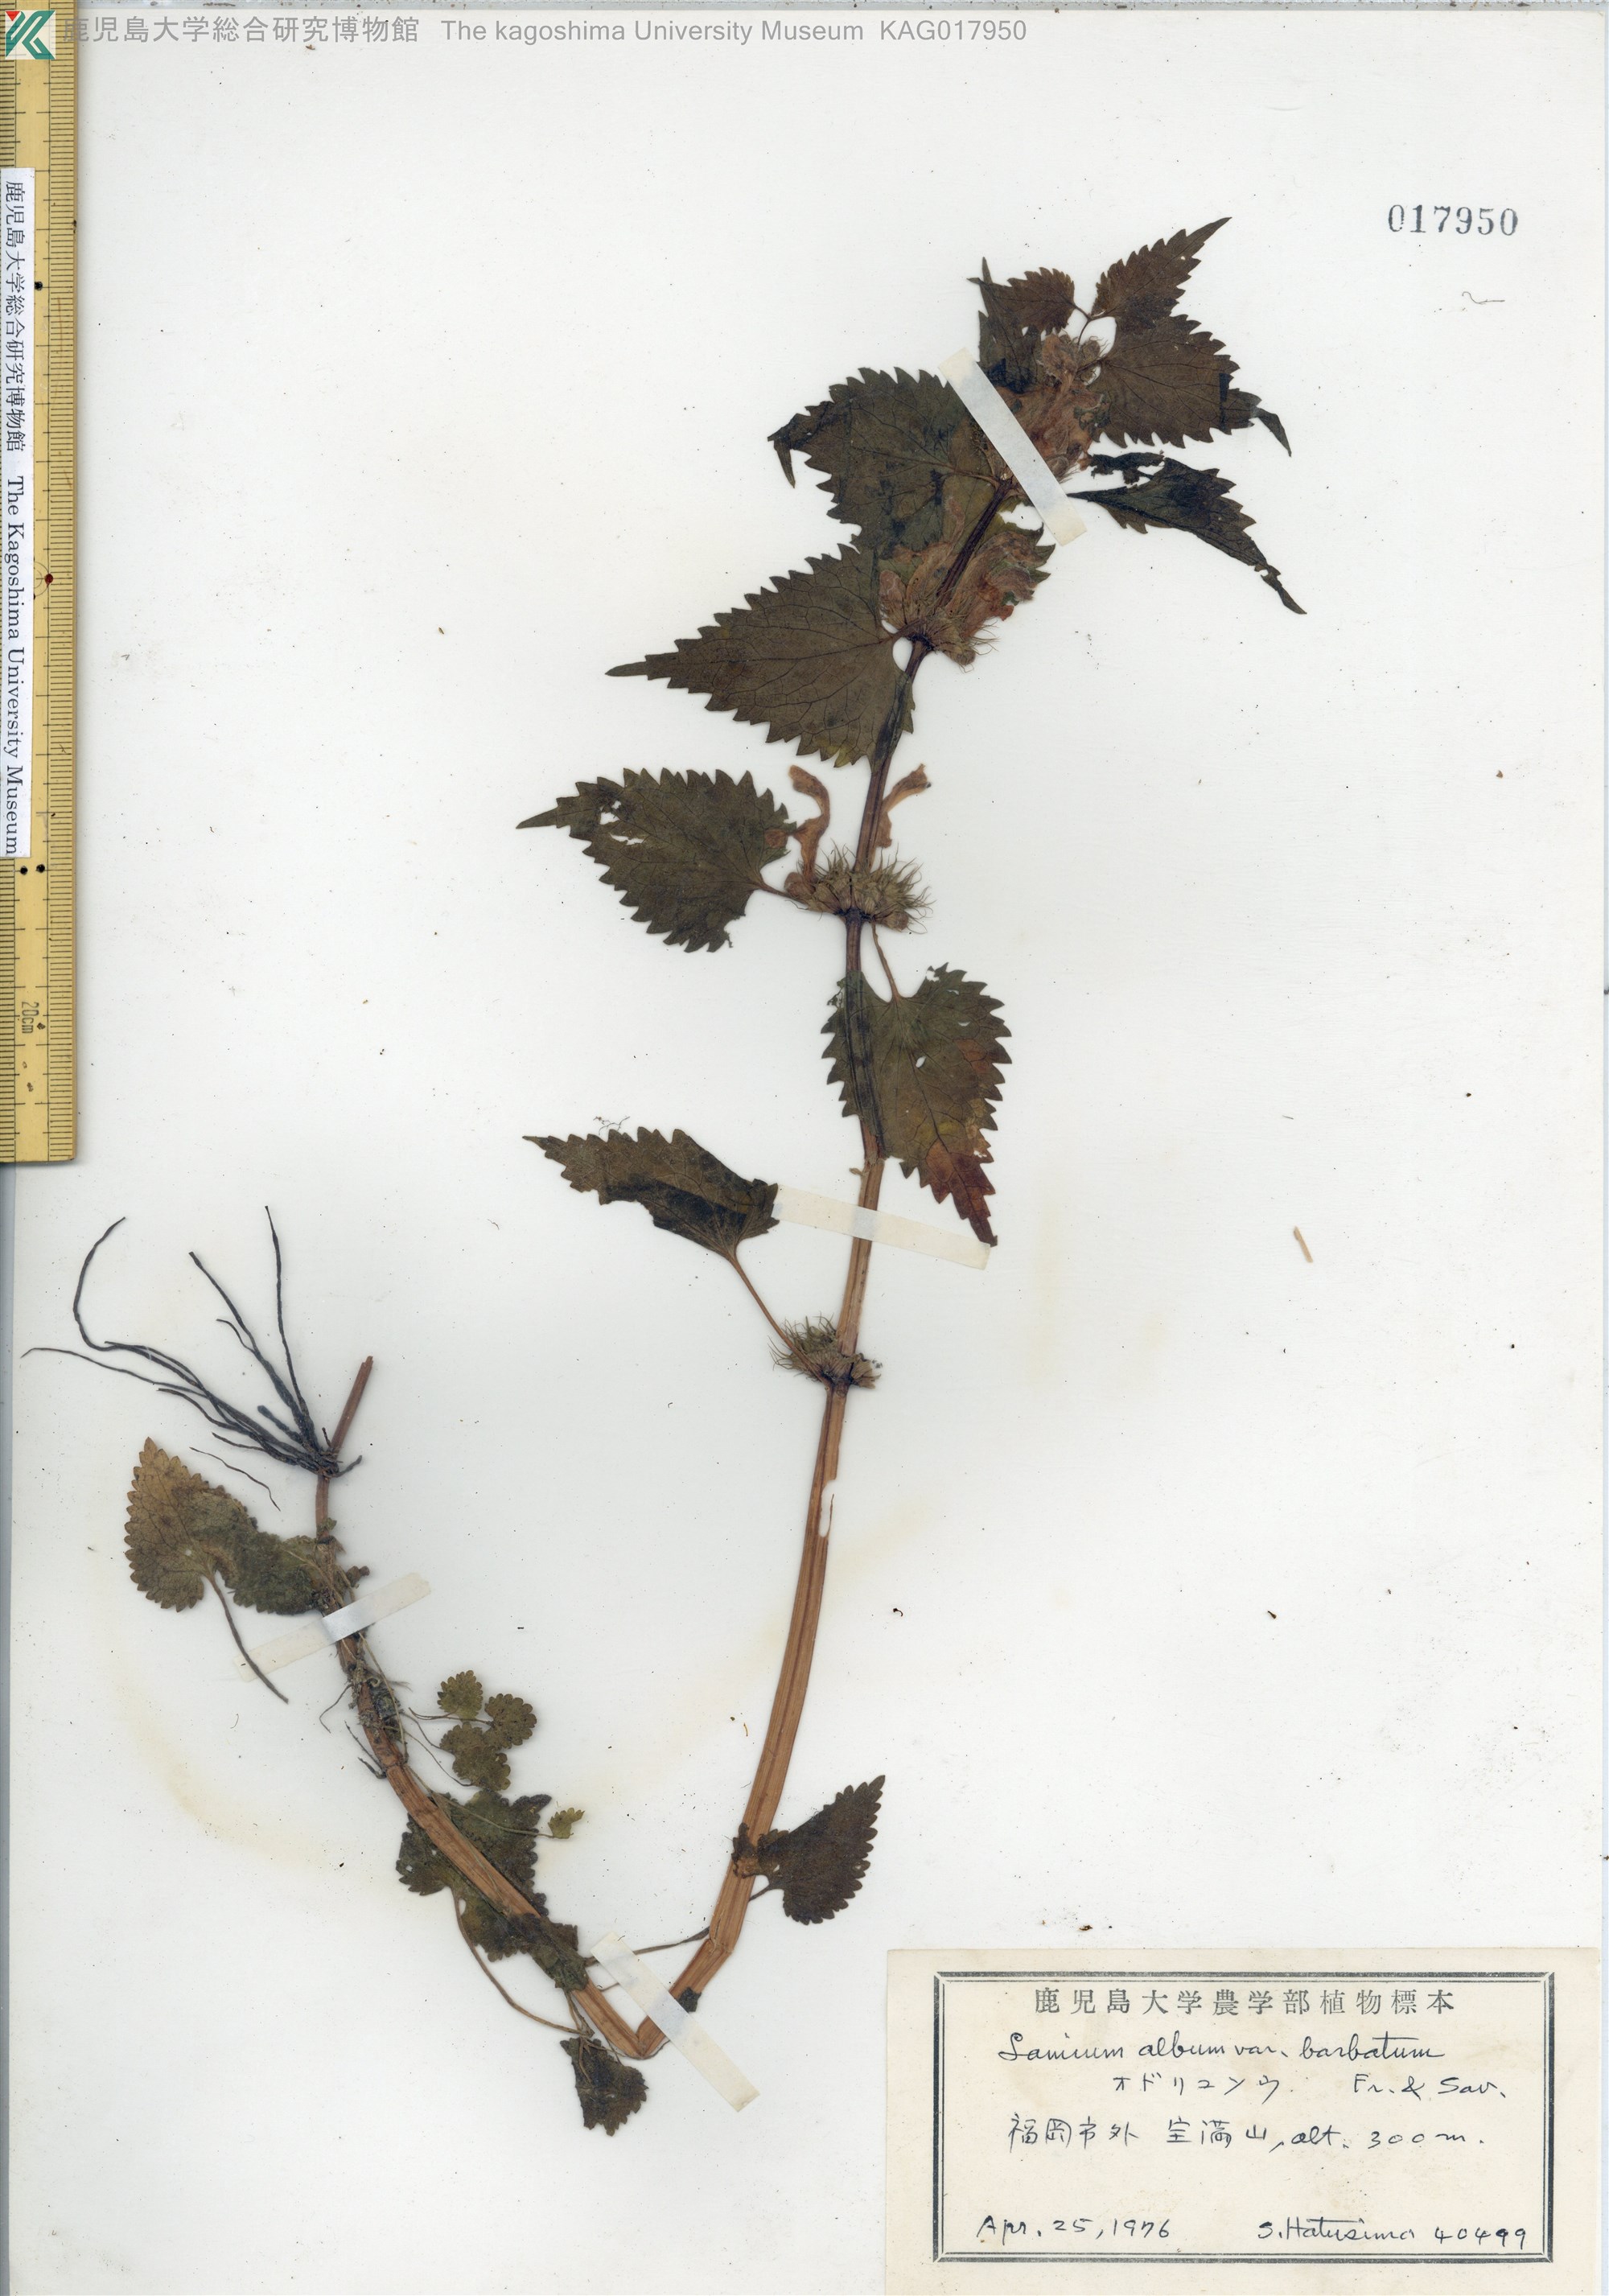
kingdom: Plantae
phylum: Tracheophyta
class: Magnoliopsida
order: Lamiales
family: Lamiaceae
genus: Lamium
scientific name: Lamium album
